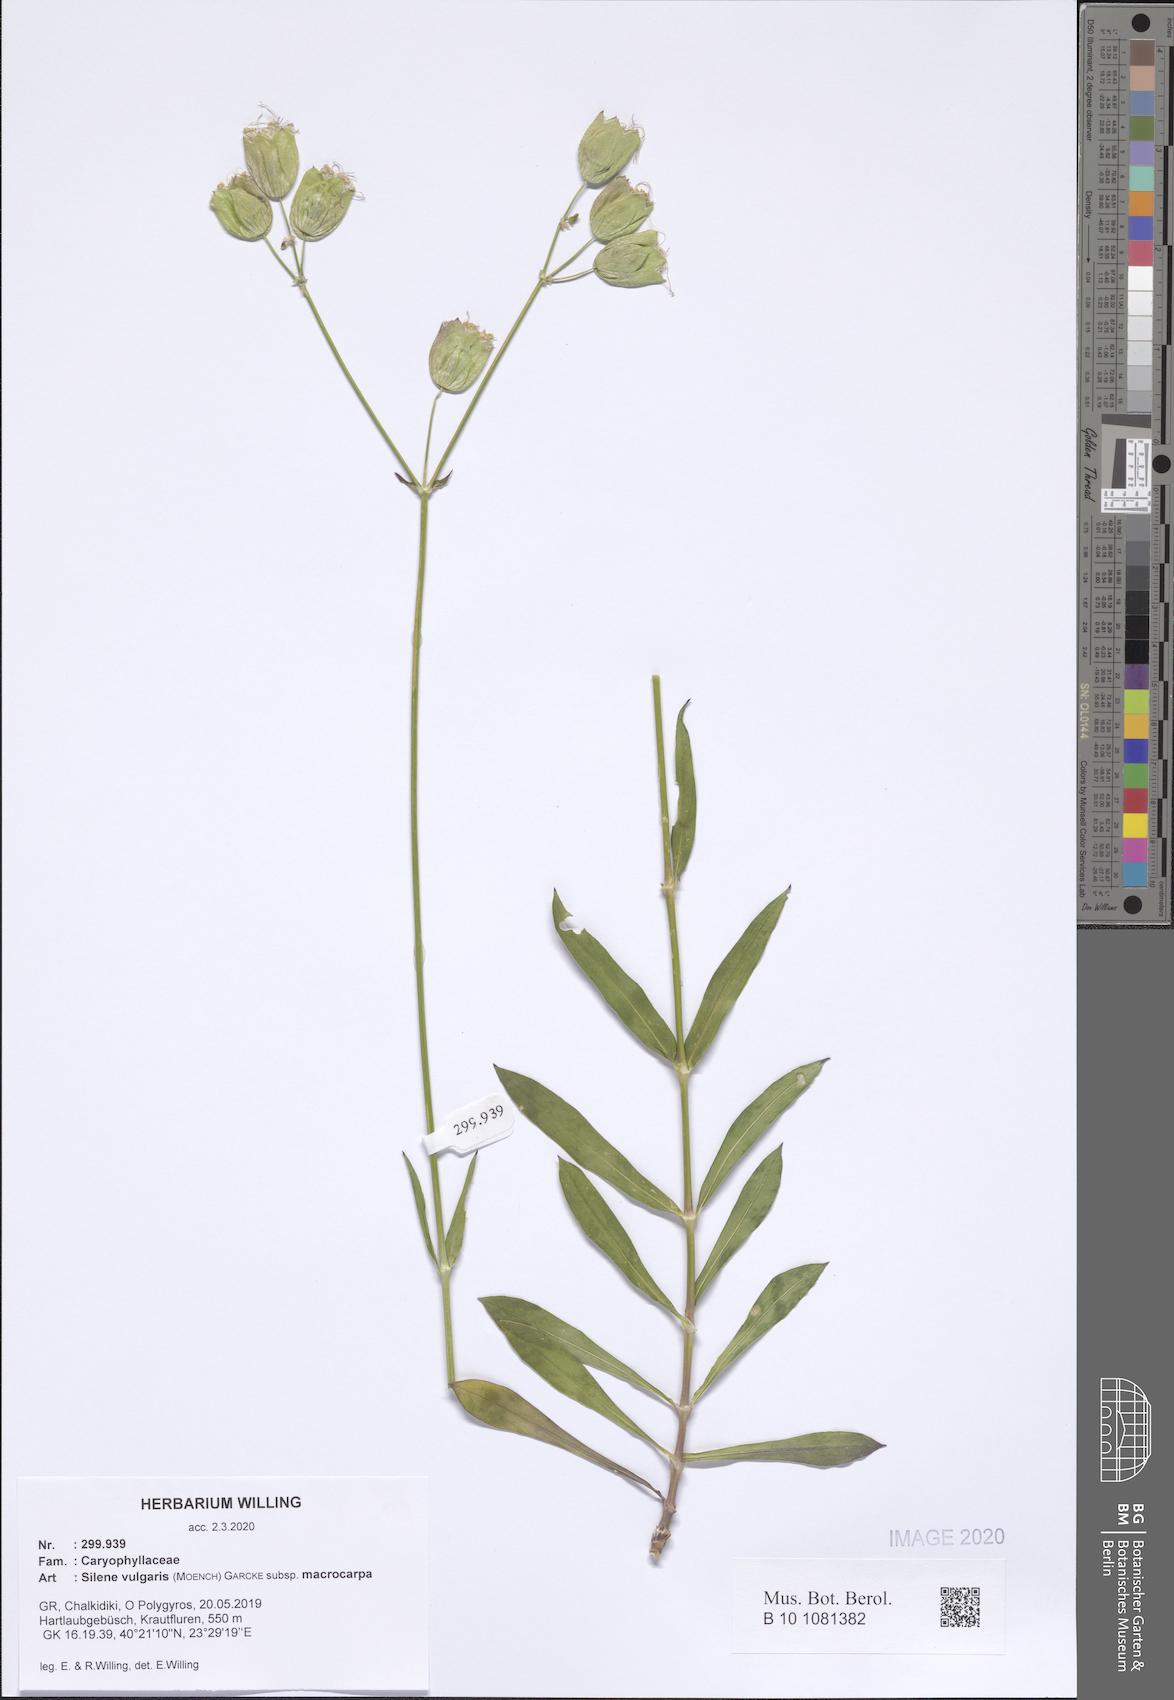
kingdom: Plantae
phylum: Tracheophyta
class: Magnoliopsida
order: Caryophyllales
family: Caryophyllaceae
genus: Silene
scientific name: Silene vulgaris
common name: Bladder campion
